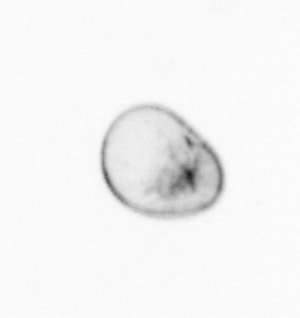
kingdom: Chromista
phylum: Myzozoa
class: Dinophyceae
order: Noctilucales
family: Noctilucaceae
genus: Noctiluca
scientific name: Noctiluca scintillans
